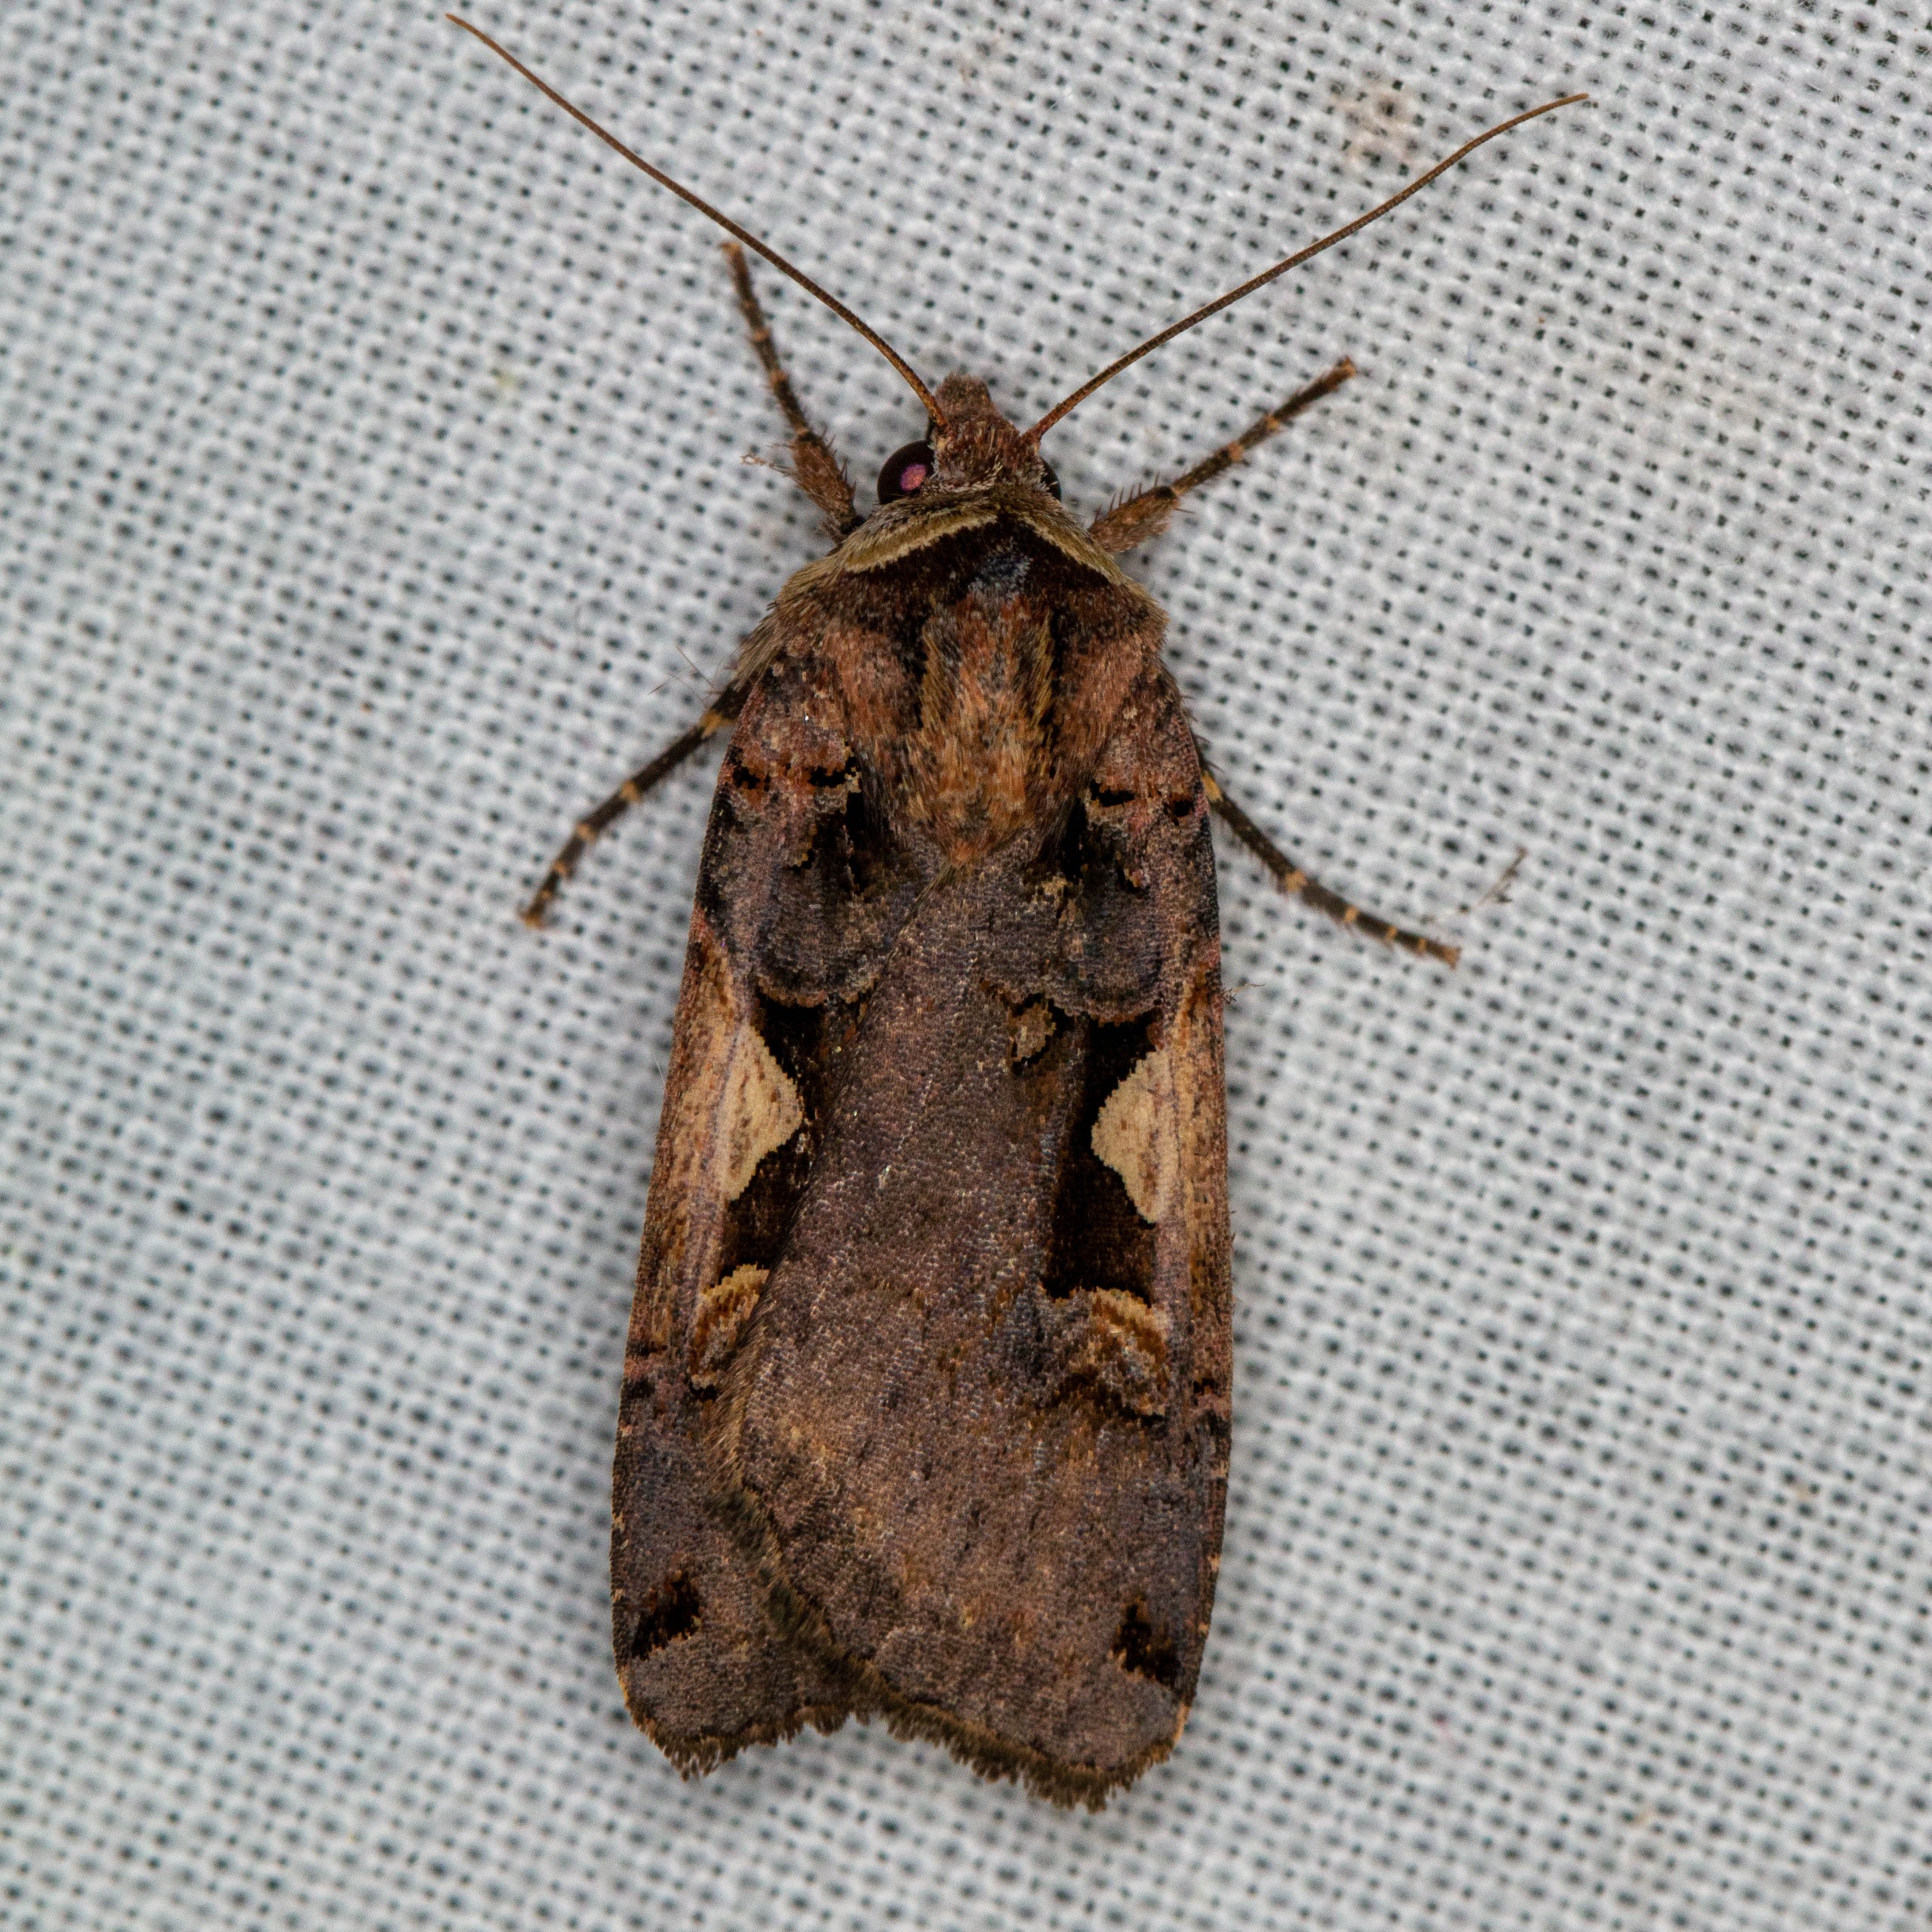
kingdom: Animalia
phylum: Arthropoda
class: Insecta
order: Lepidoptera
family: Noctuidae
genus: Xestia
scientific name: Xestia c-nigrum
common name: Det sorte c
